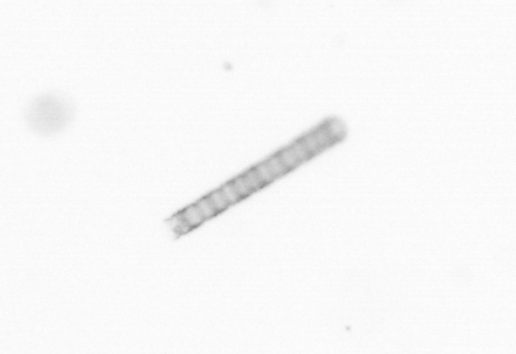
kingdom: Chromista
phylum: Ochrophyta
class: Bacillariophyceae
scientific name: Bacillariophyceae
